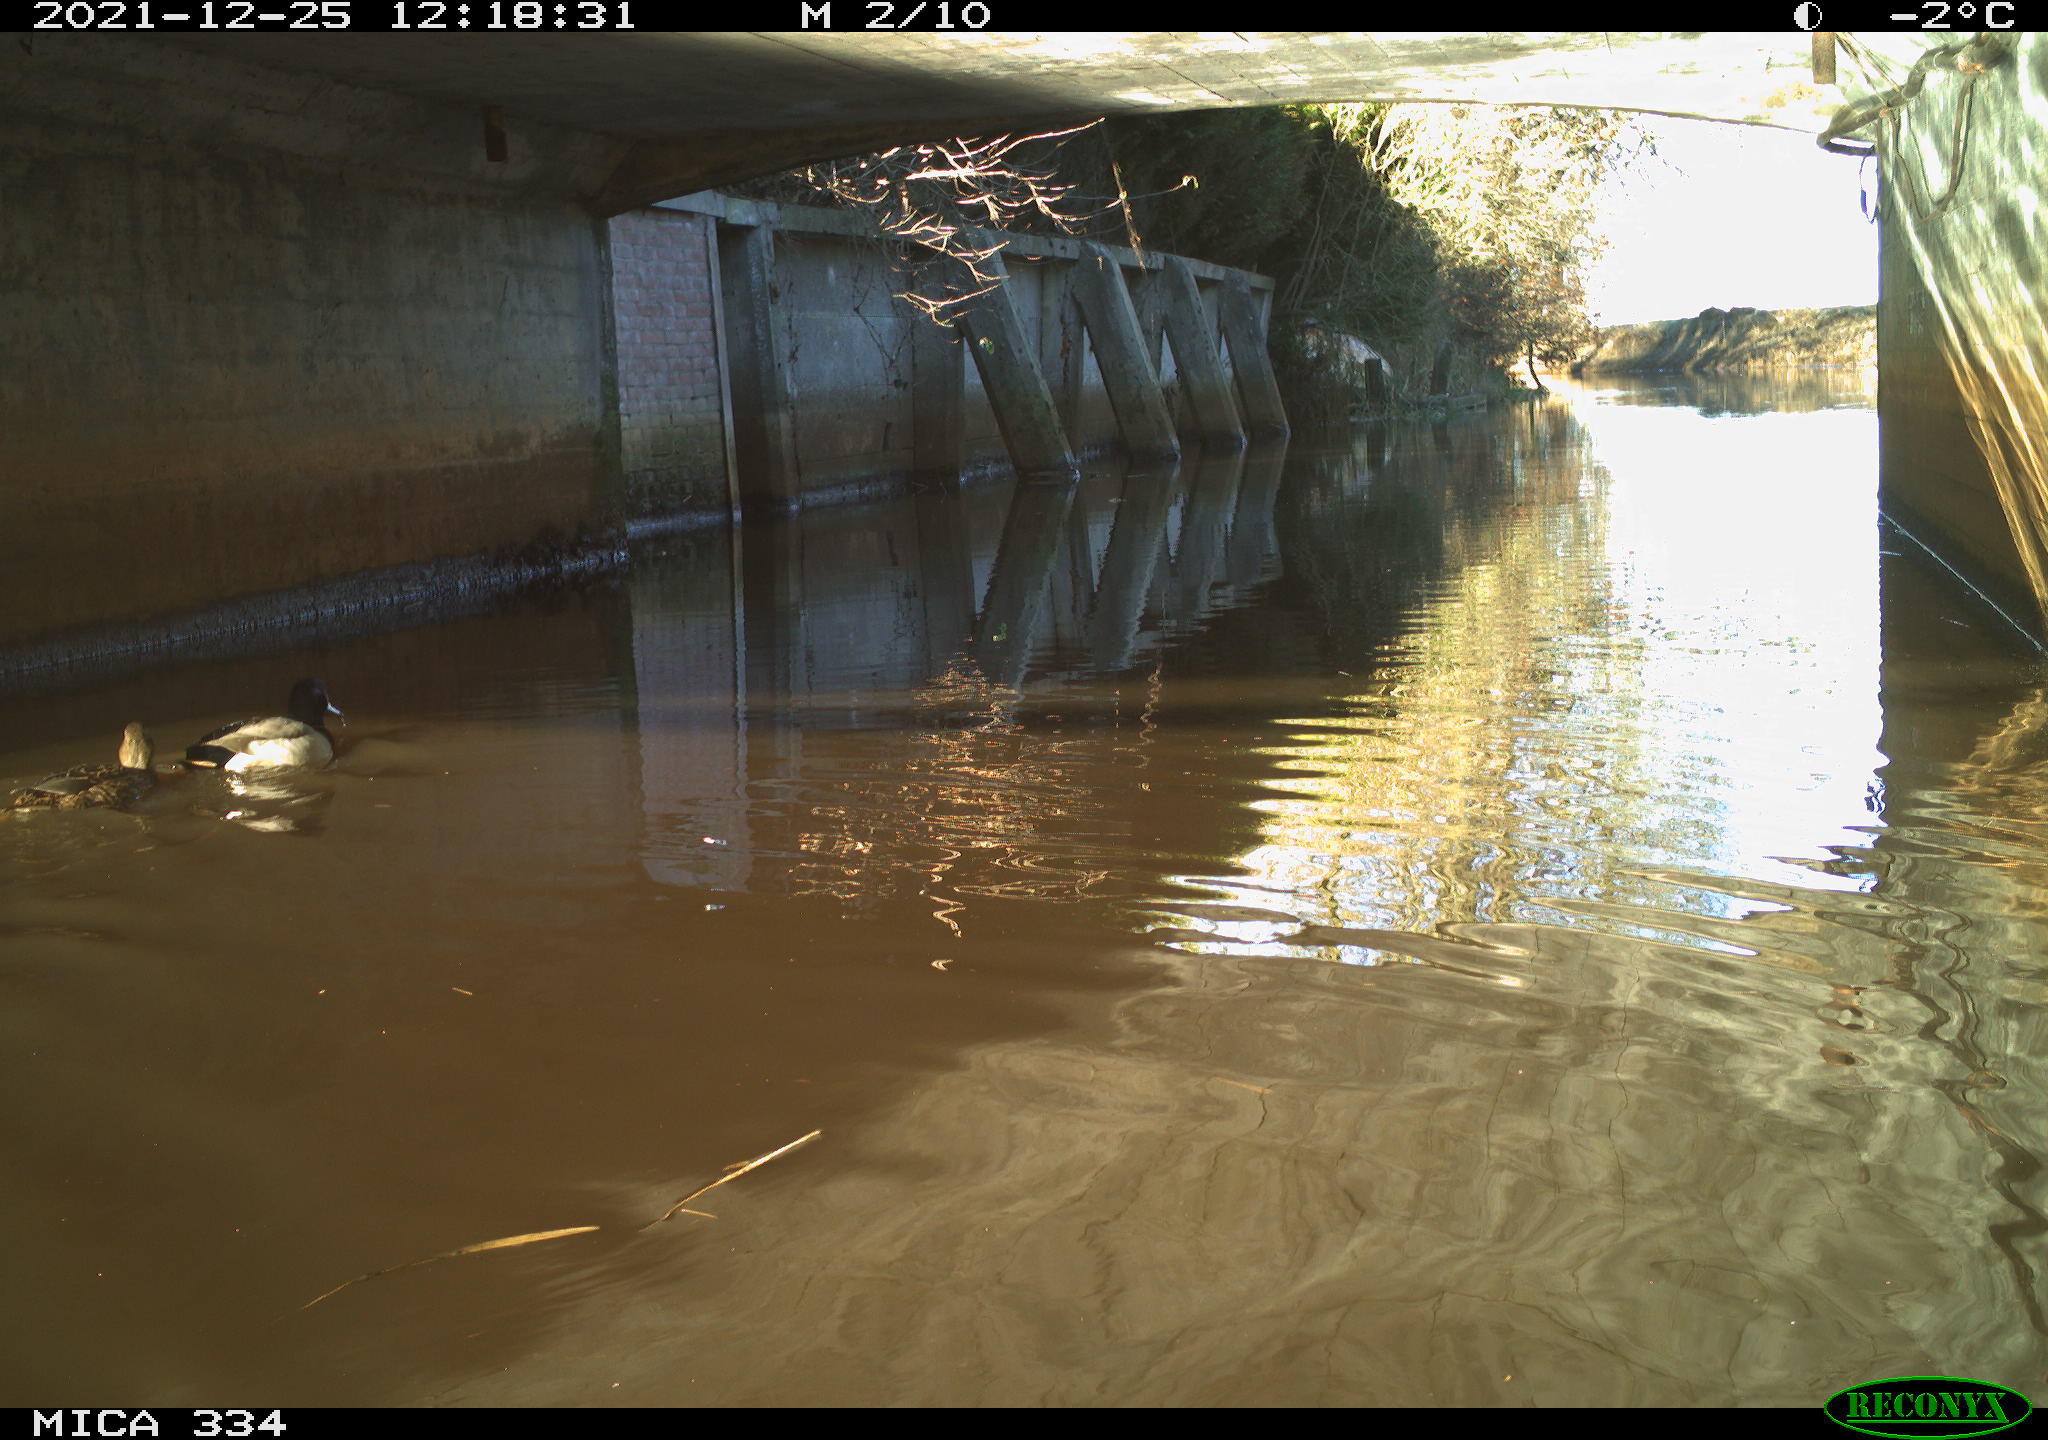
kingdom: Animalia
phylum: Chordata
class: Aves
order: Anseriformes
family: Anatidae
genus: Anas
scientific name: Anas platyrhynchos
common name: Mallard
